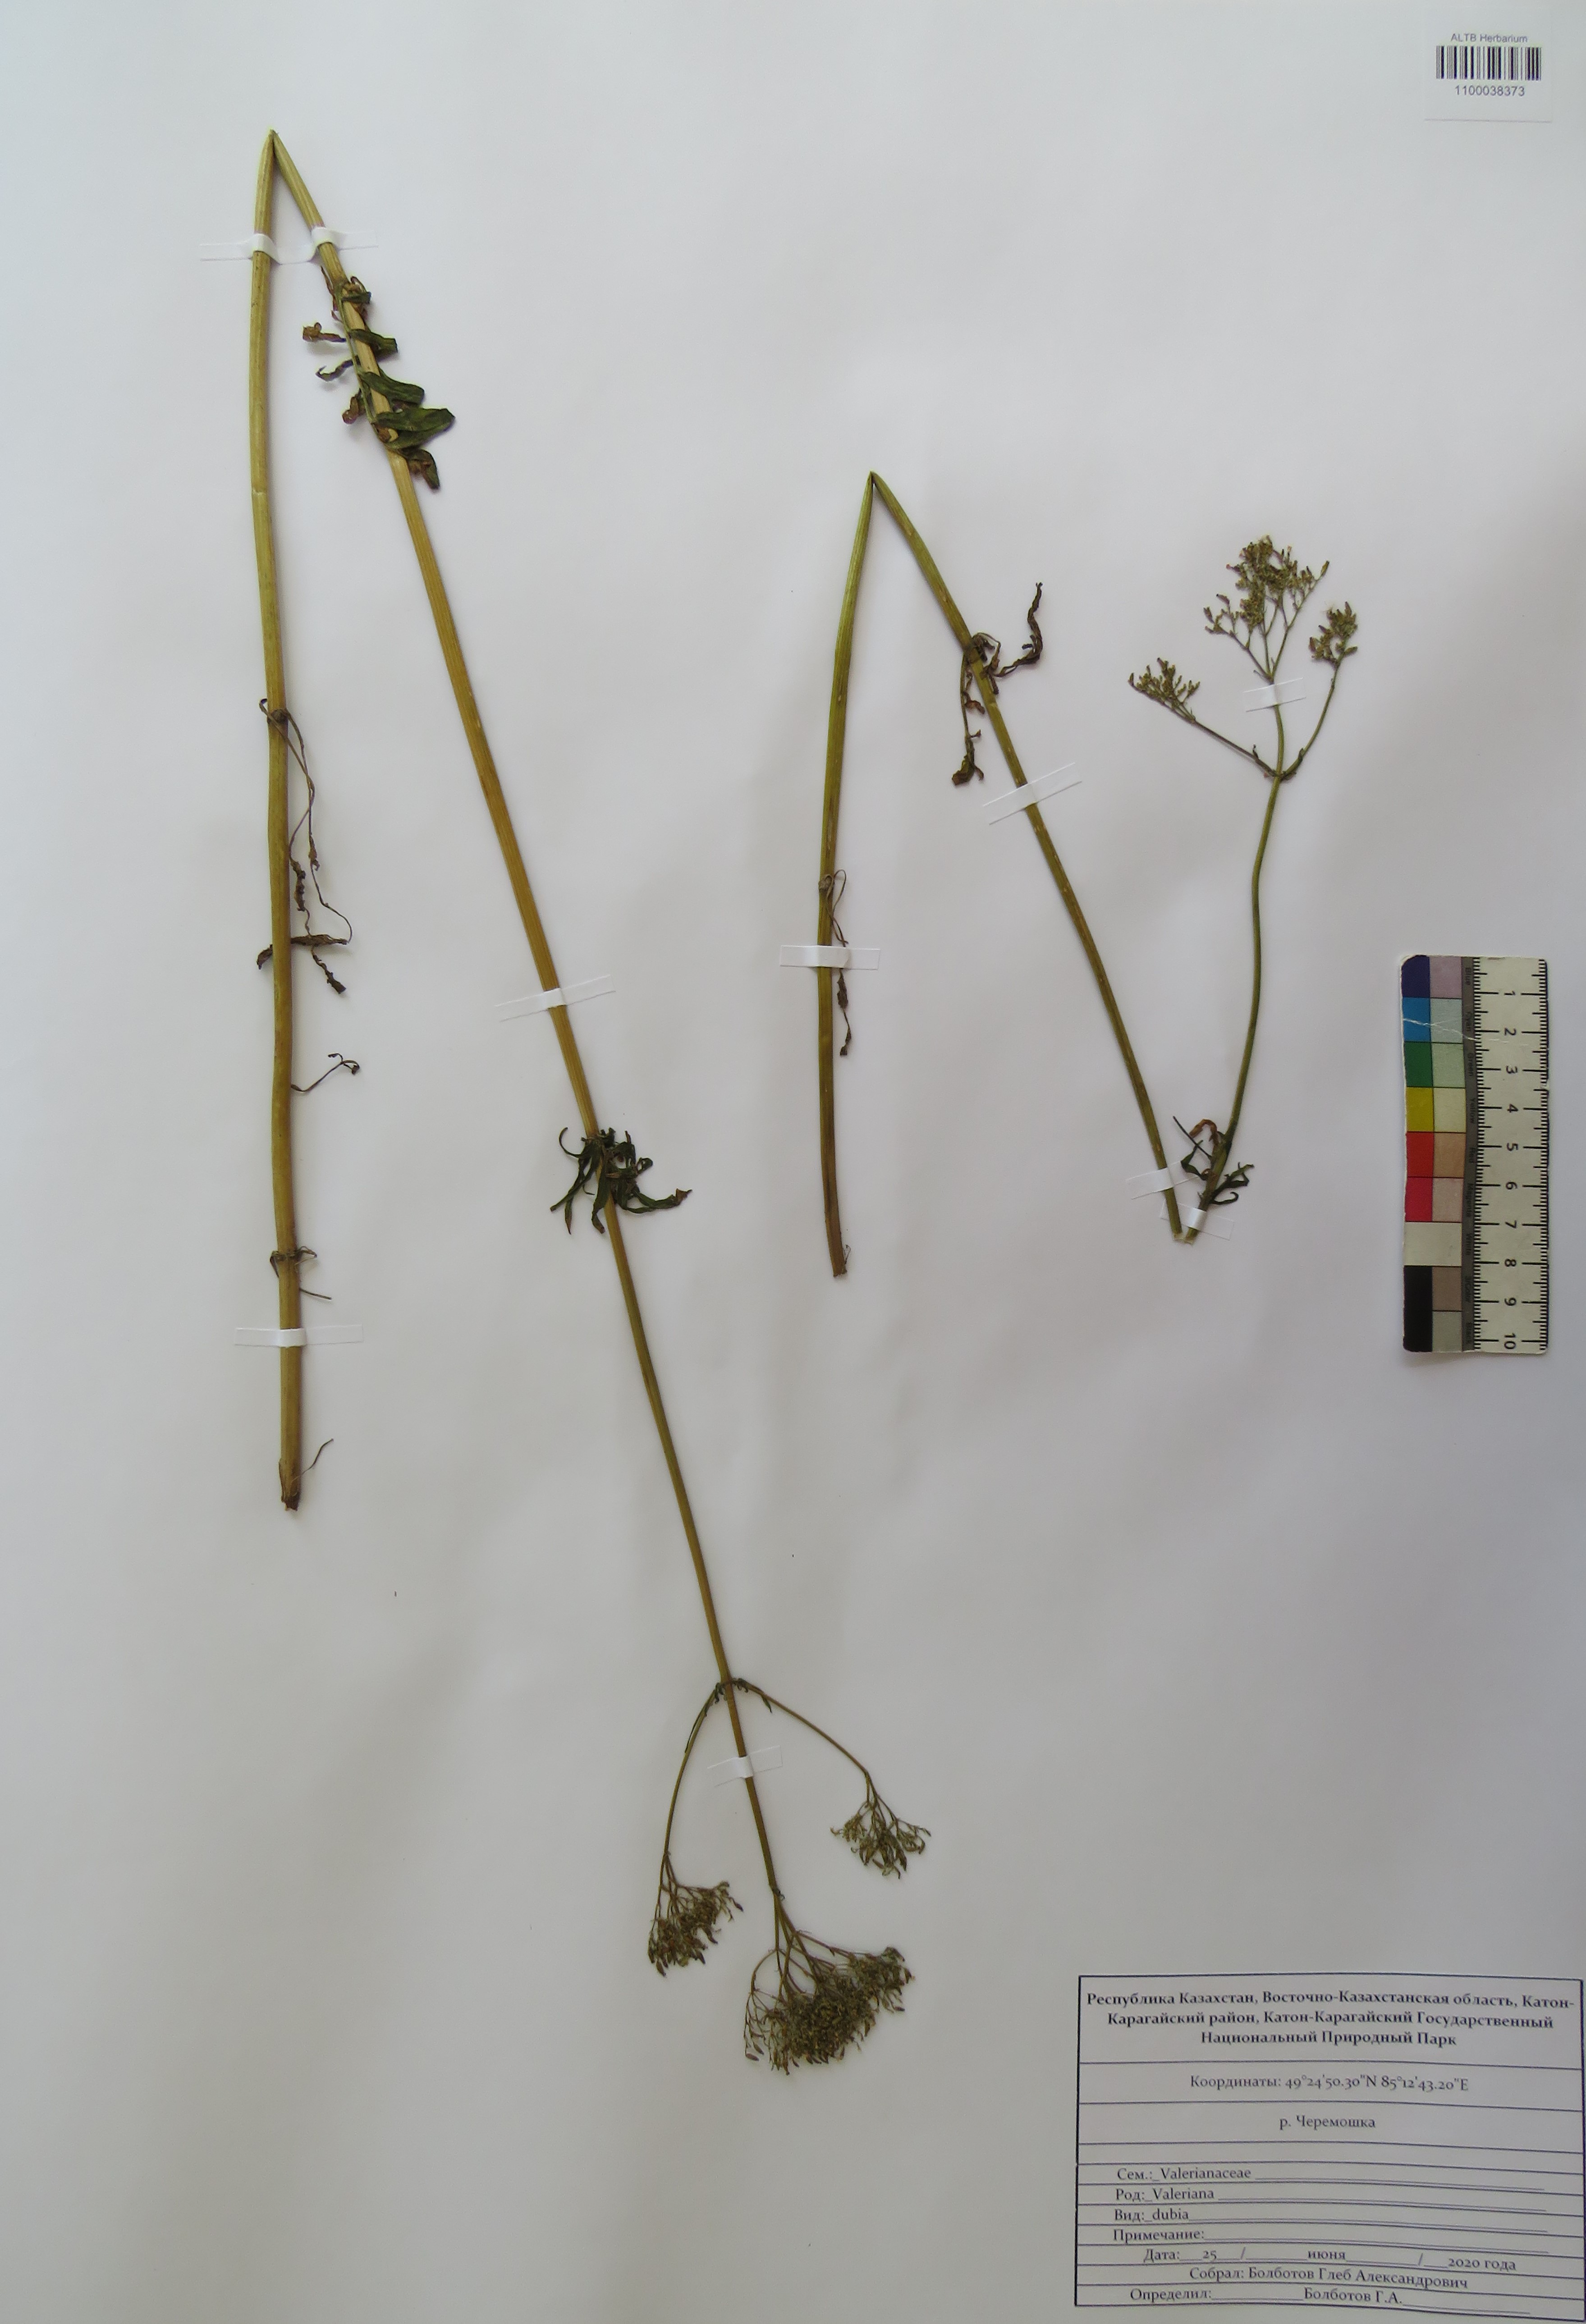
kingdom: Plantae
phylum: Tracheophyta
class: Magnoliopsida
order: Dipsacales
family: Caprifoliaceae
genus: Valeriana
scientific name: Valeriana dubia
